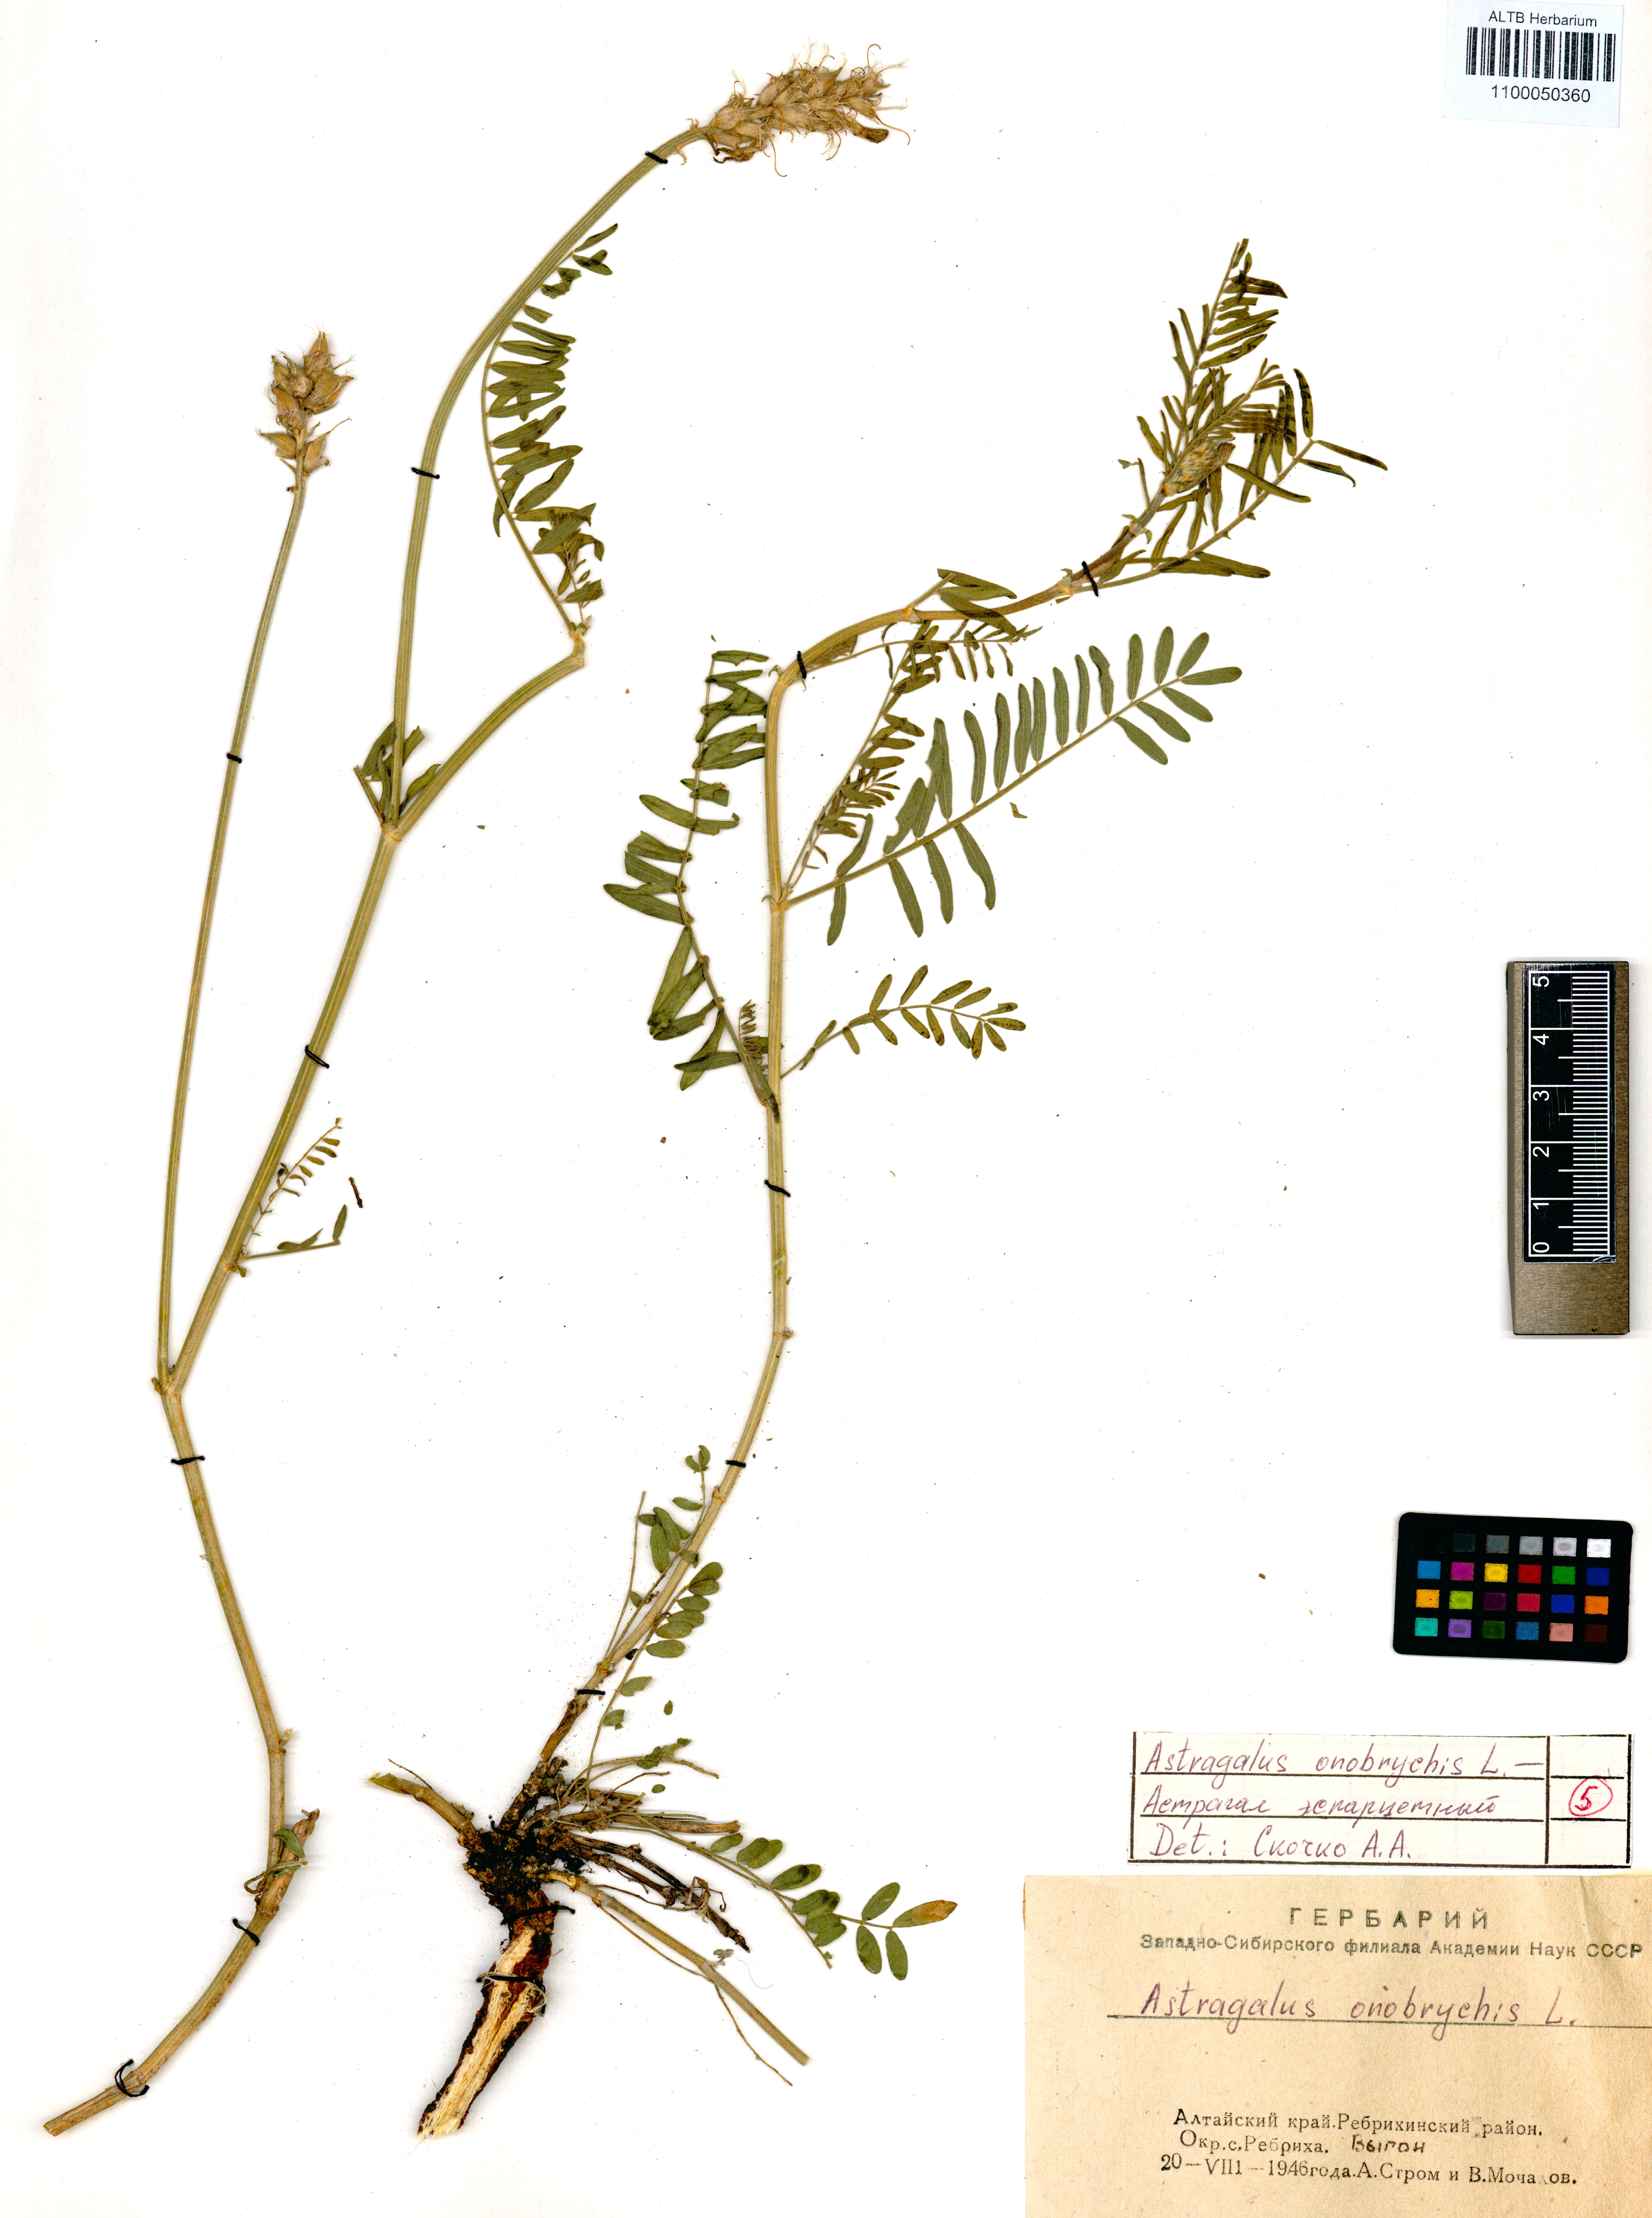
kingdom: Plantae
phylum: Tracheophyta
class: Magnoliopsida
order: Fabales
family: Fabaceae
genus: Astragalus
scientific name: Astragalus onobrychis
